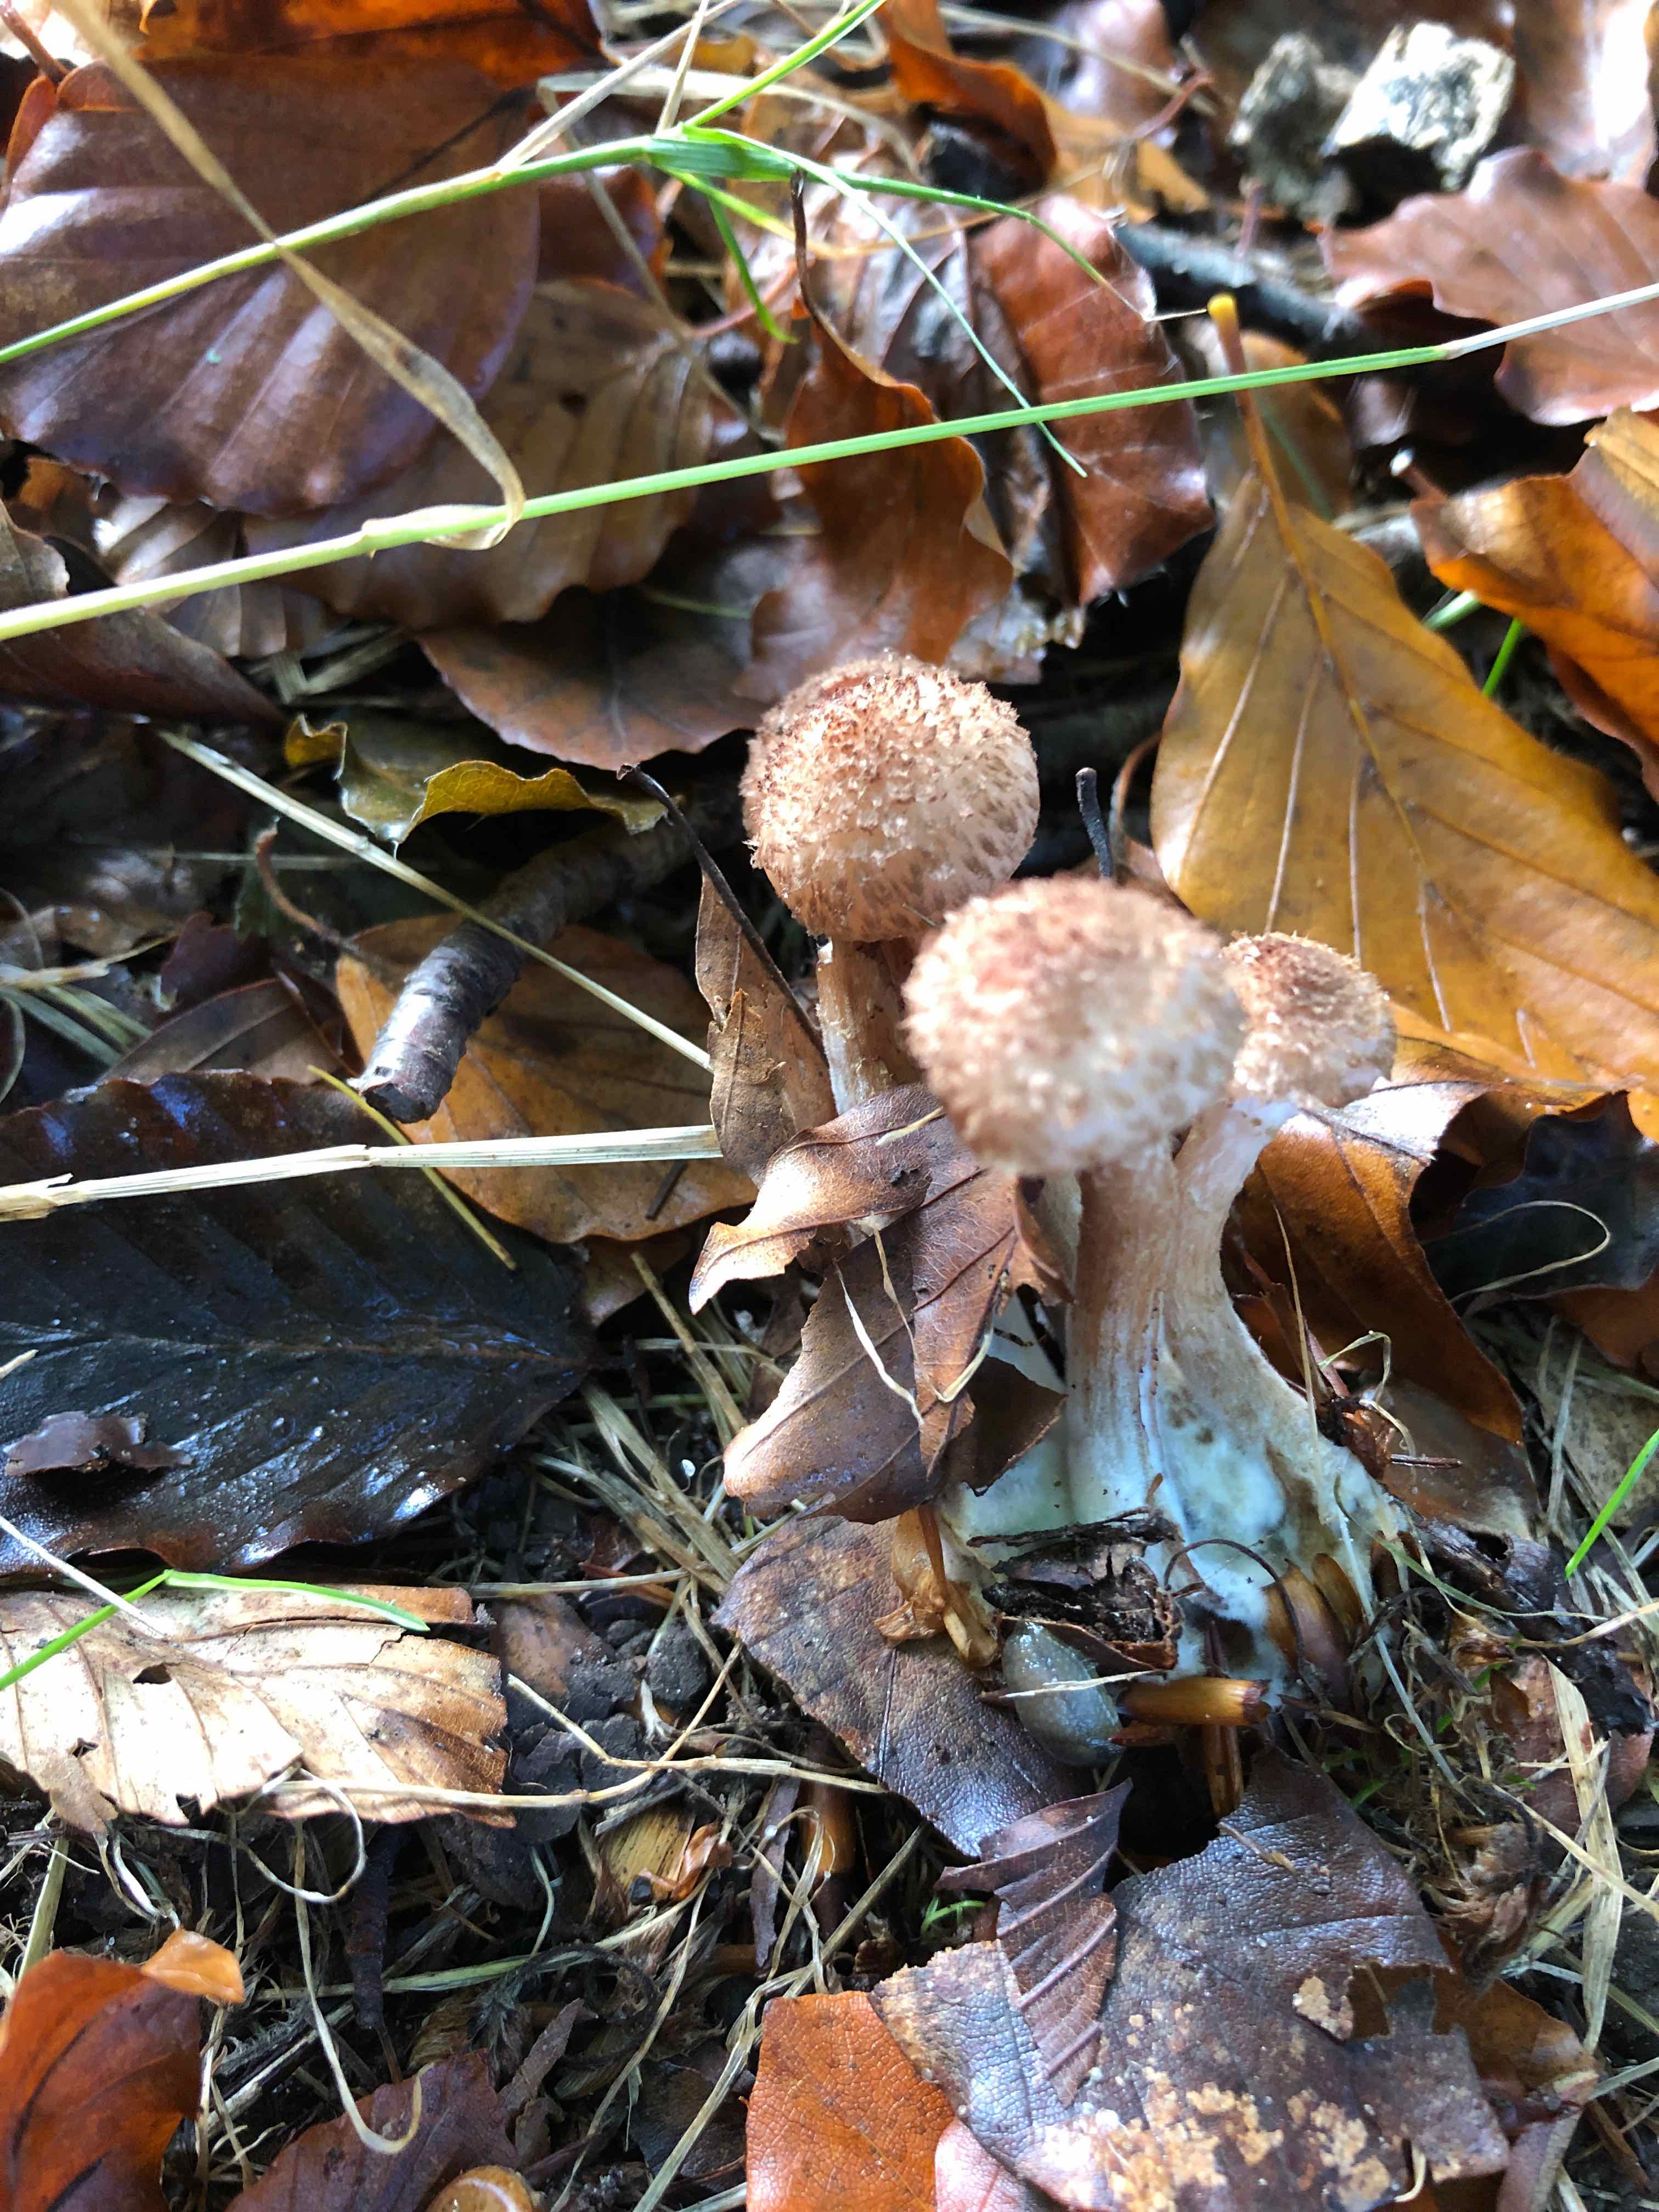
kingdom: Fungi
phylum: Basidiomycota
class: Agaricomycetes
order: Agaricales
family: Physalacriaceae
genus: Armillaria
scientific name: Armillaria
